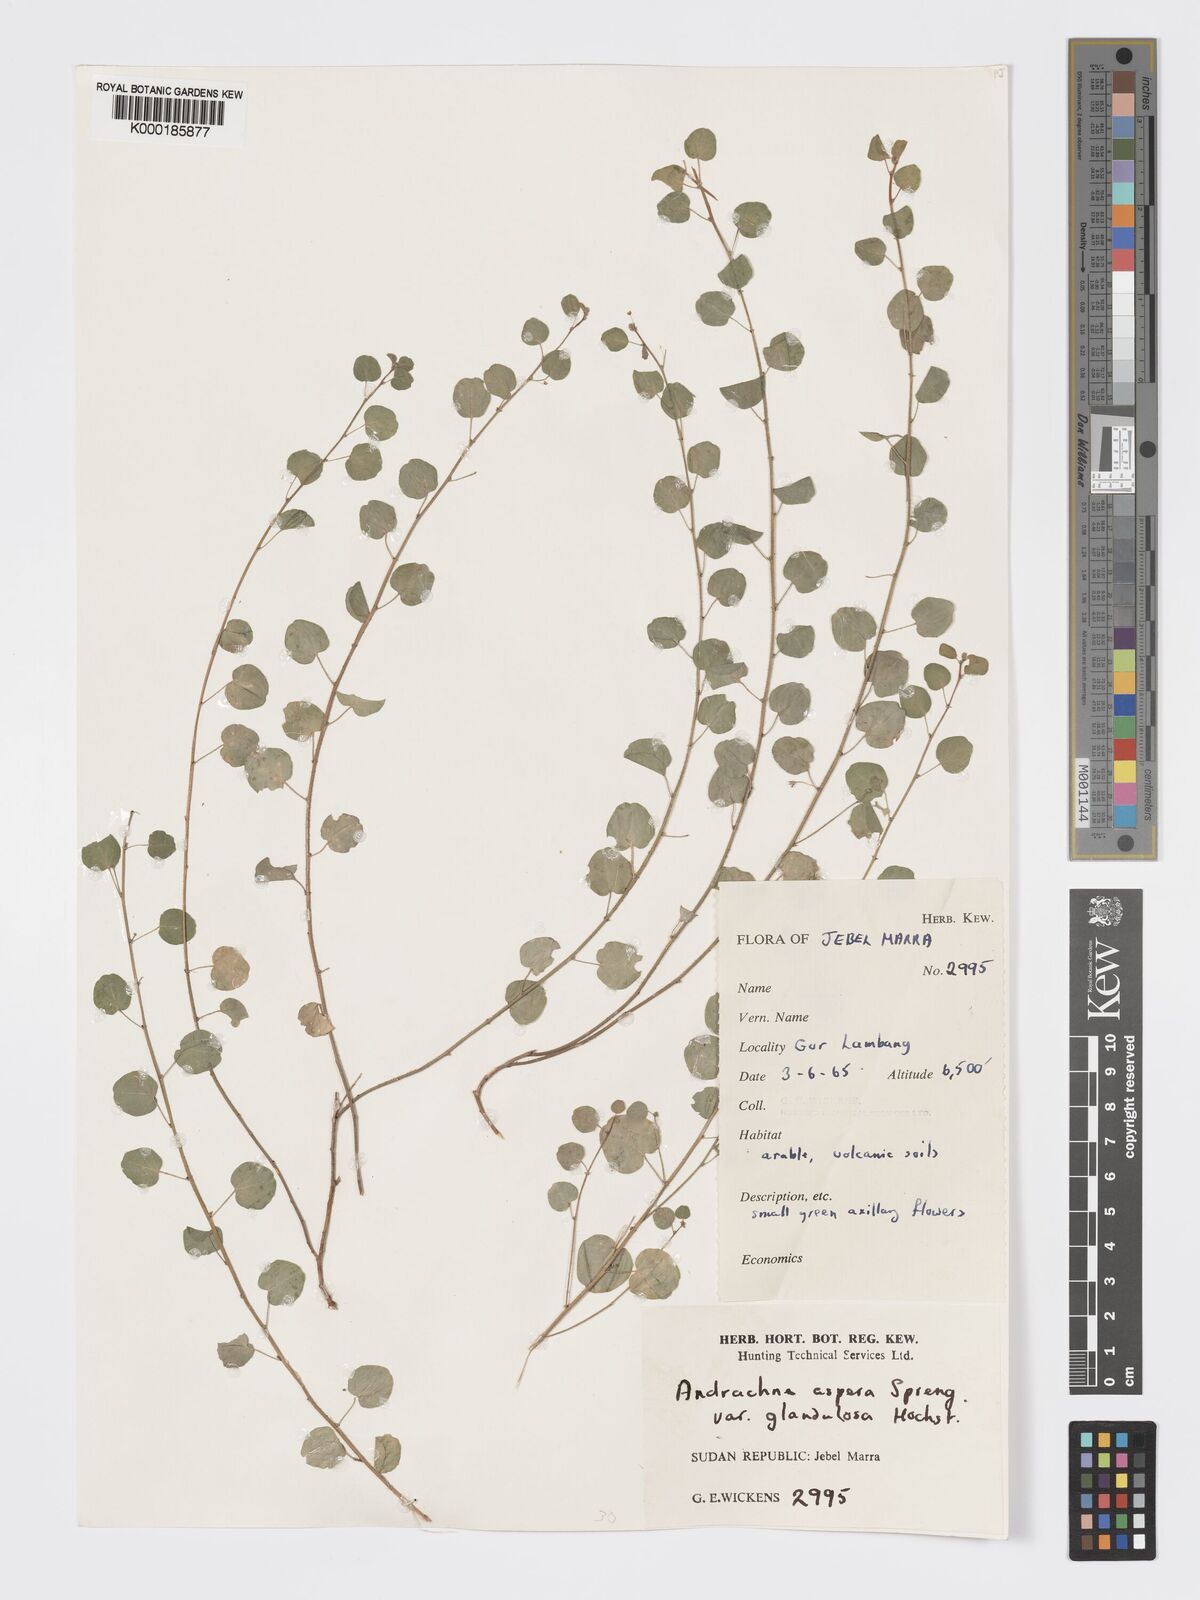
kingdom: Plantae
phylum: Tracheophyta
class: Magnoliopsida
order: Malpighiales
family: Phyllanthaceae
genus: Andrachne
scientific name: Andrachne aspera
